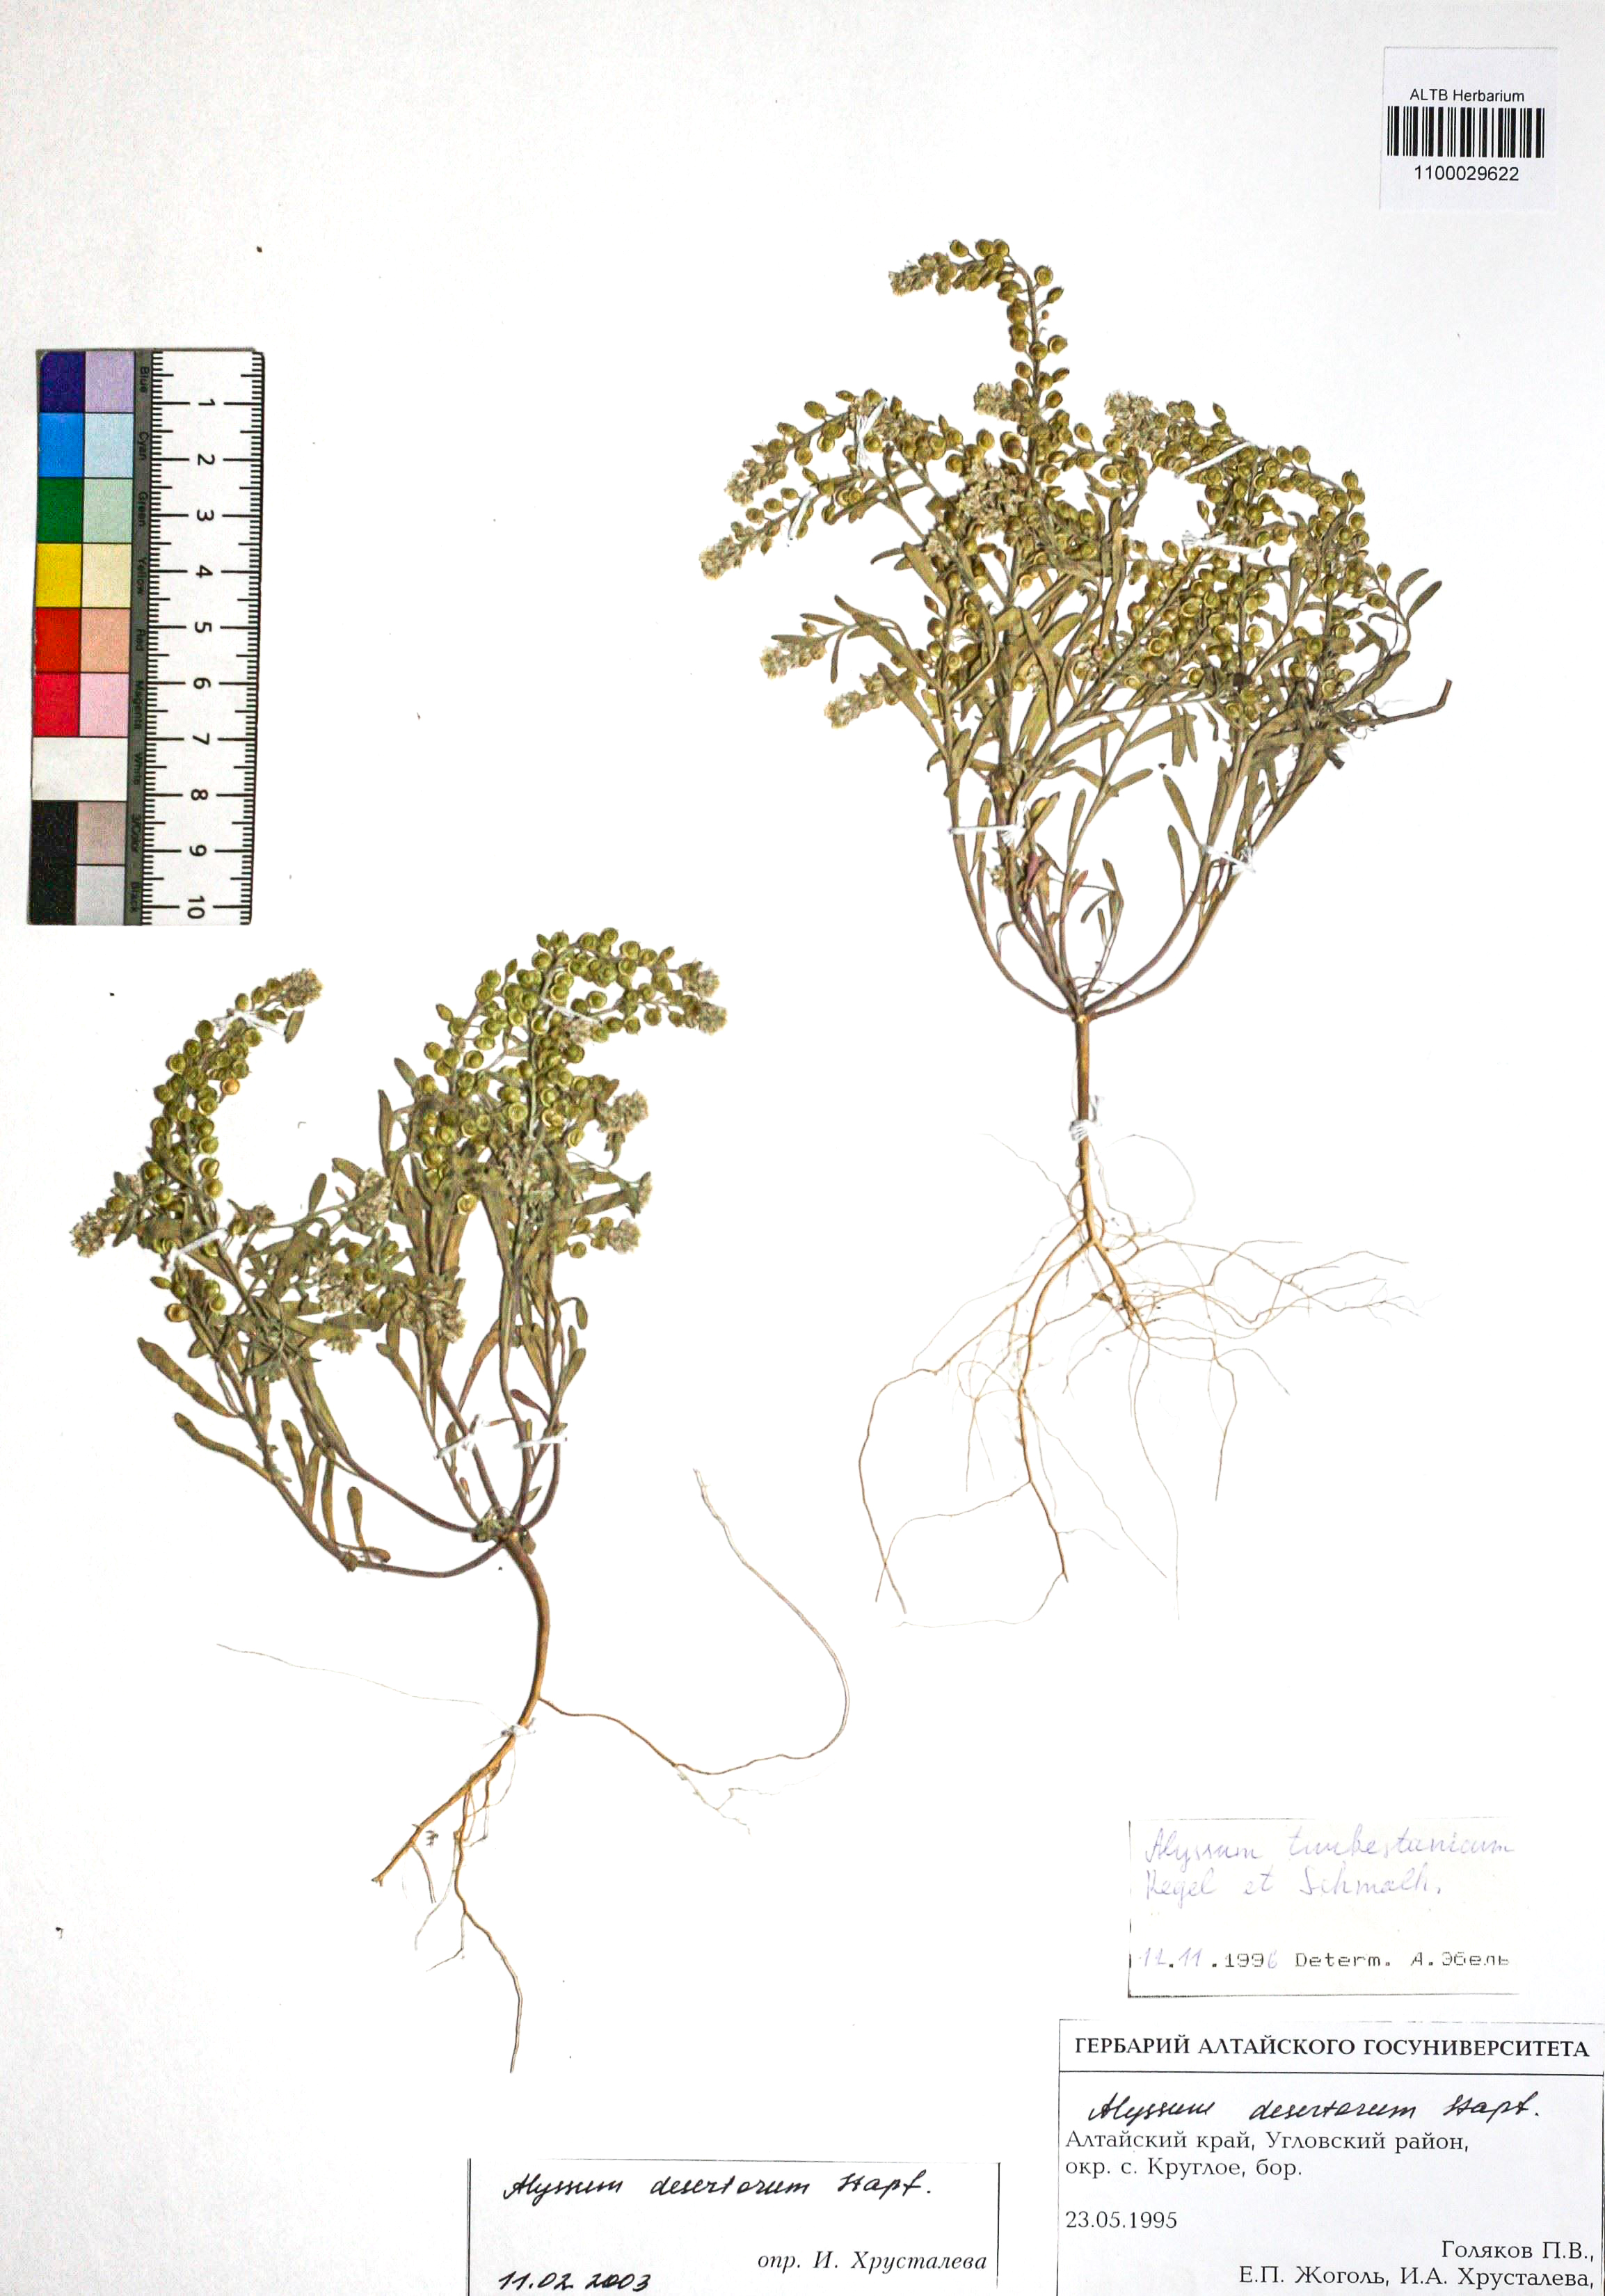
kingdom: Plantae
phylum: Tracheophyta
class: Magnoliopsida
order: Brassicales
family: Brassicaceae
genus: Alyssum
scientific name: Alyssum turkestanicum
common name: Desert alyssum
